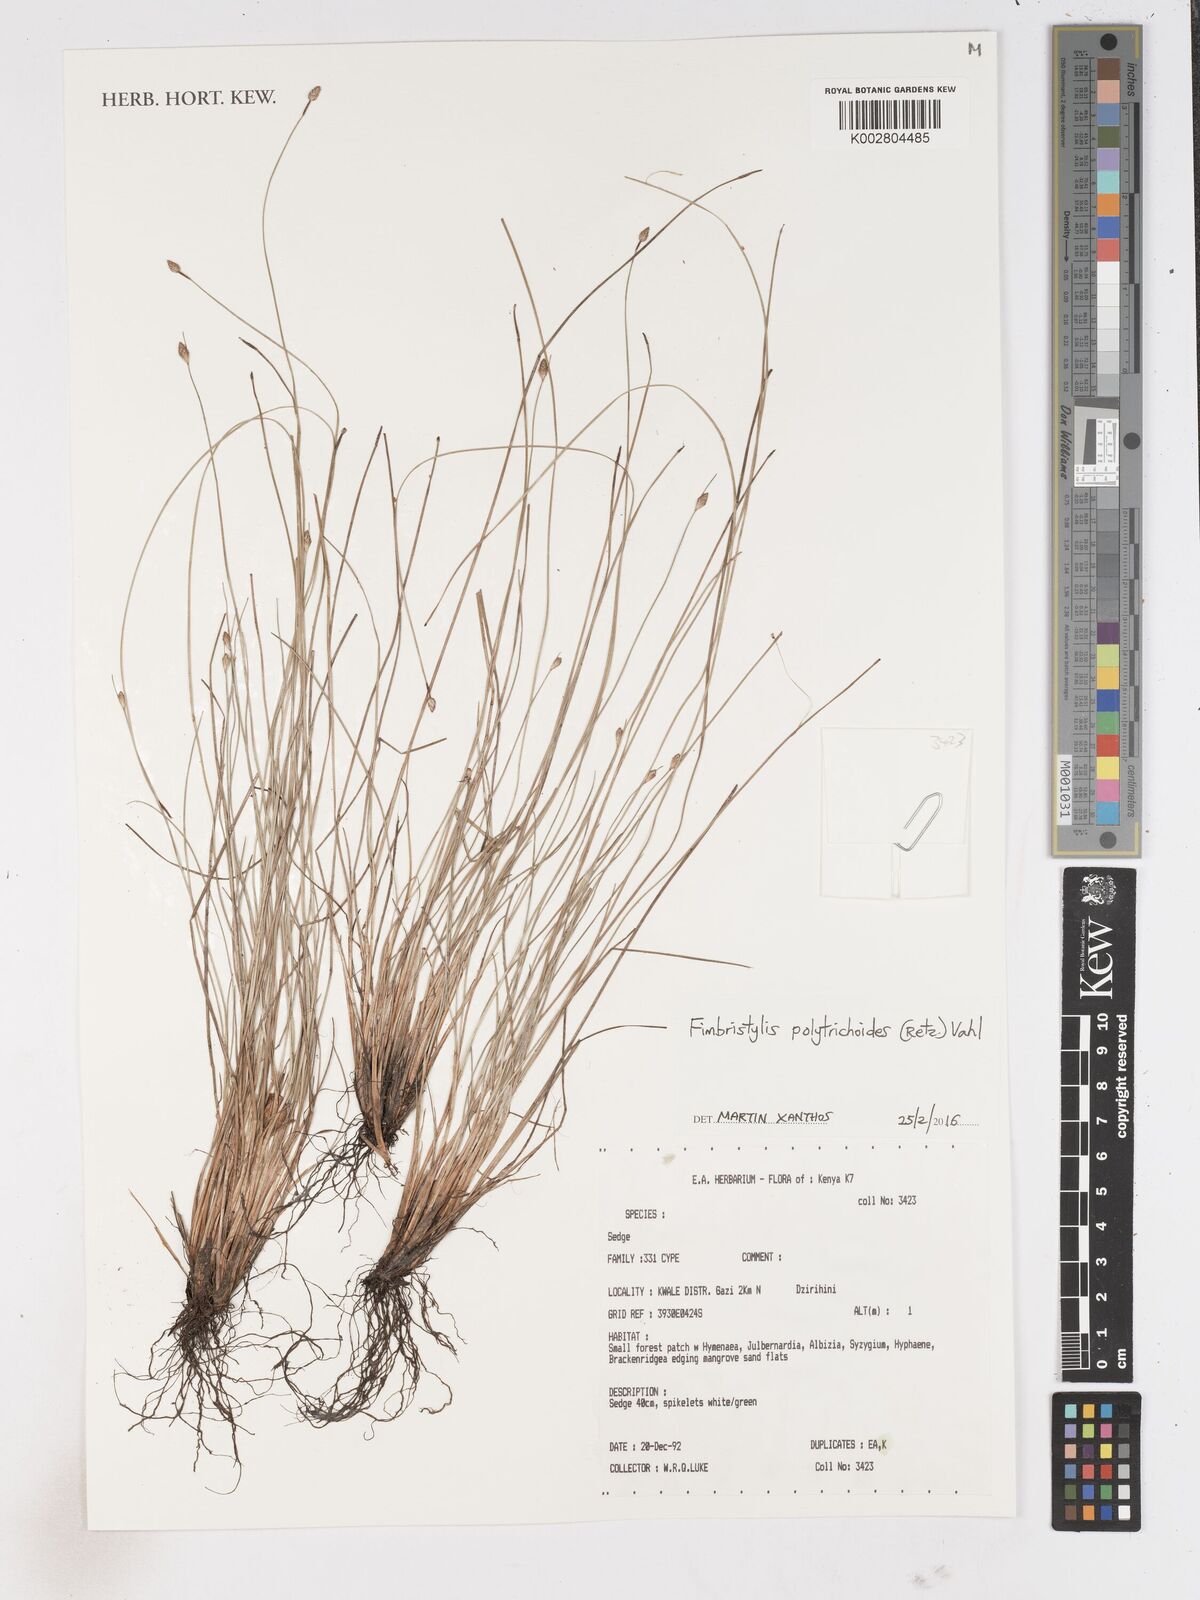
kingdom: Plantae
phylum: Tracheophyta
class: Liliopsida
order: Poales
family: Cyperaceae
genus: Fimbristylis
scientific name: Fimbristylis polytrichoides
